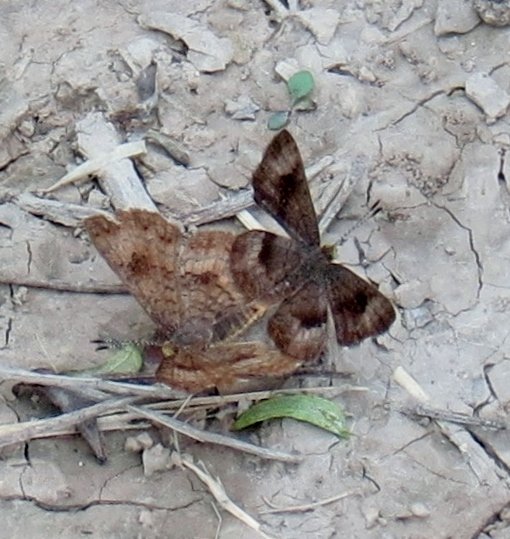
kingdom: Animalia
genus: Calephelis
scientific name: Calephelis nemesis
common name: Fatal Metalmark
